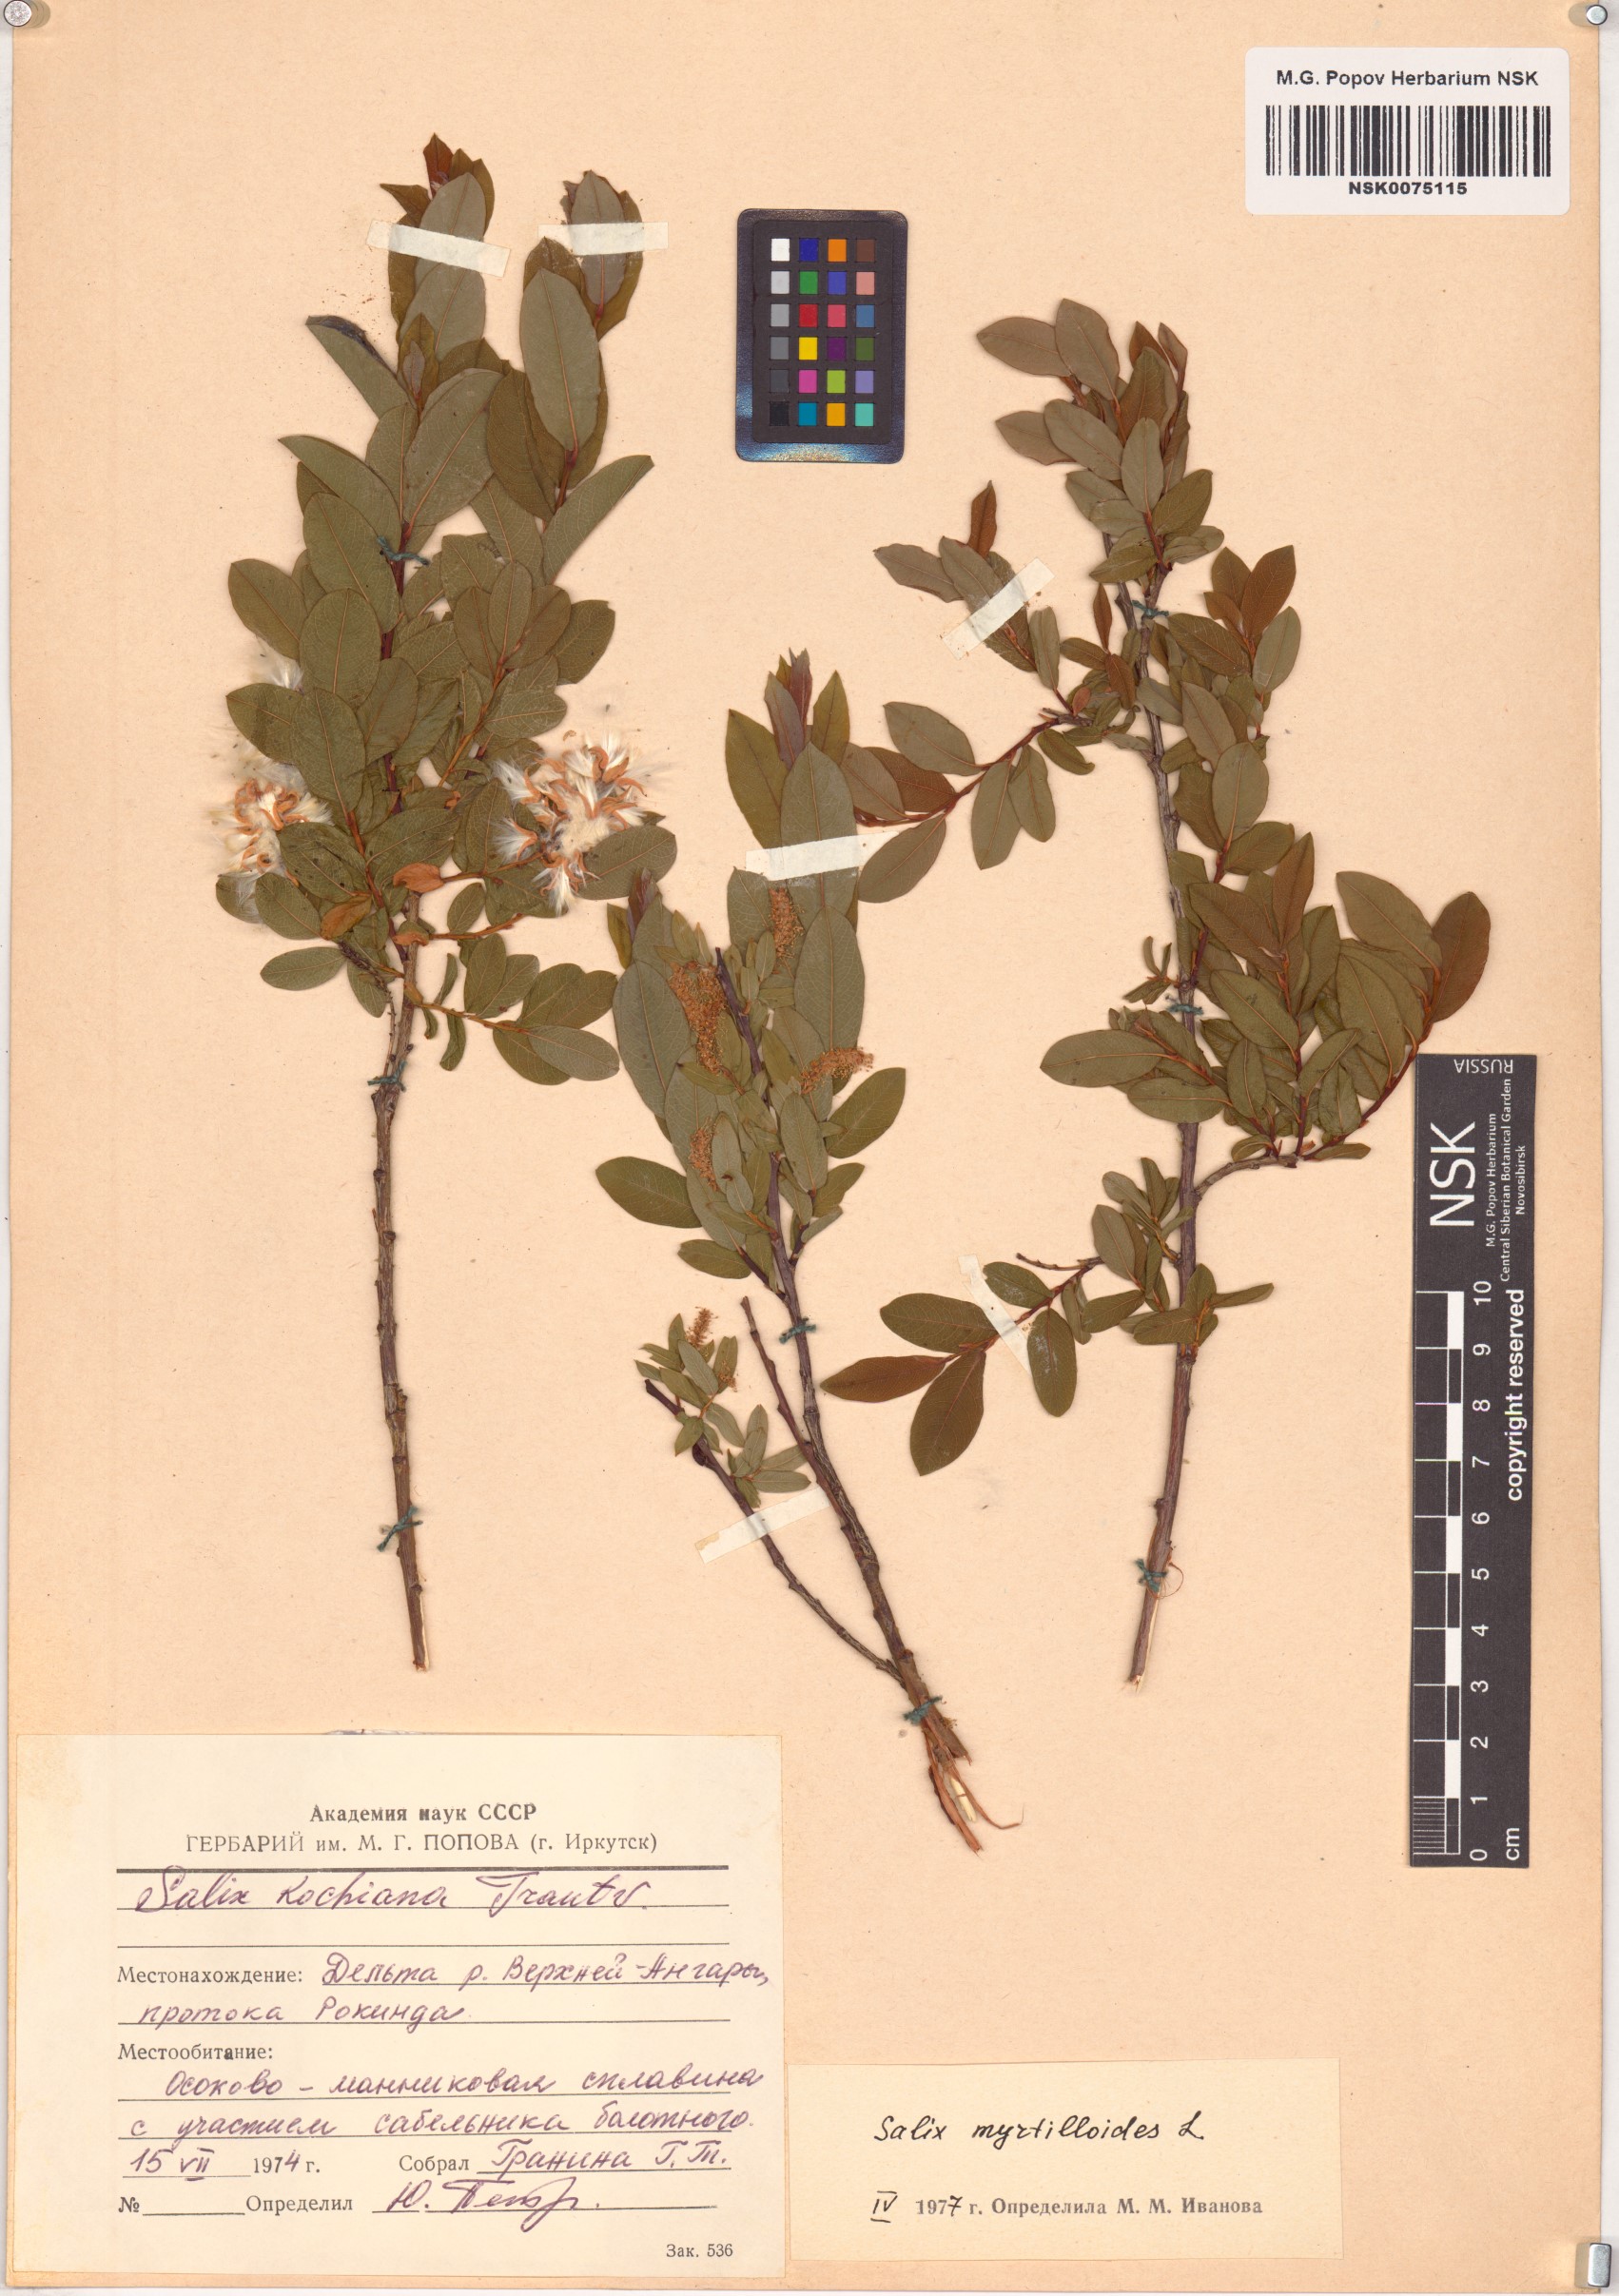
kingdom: Plantae
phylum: Tracheophyta
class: Magnoliopsida
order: Malpighiales
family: Salicaceae
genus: Salix
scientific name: Salix myrtilloides
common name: Myrtle-leaved willow
